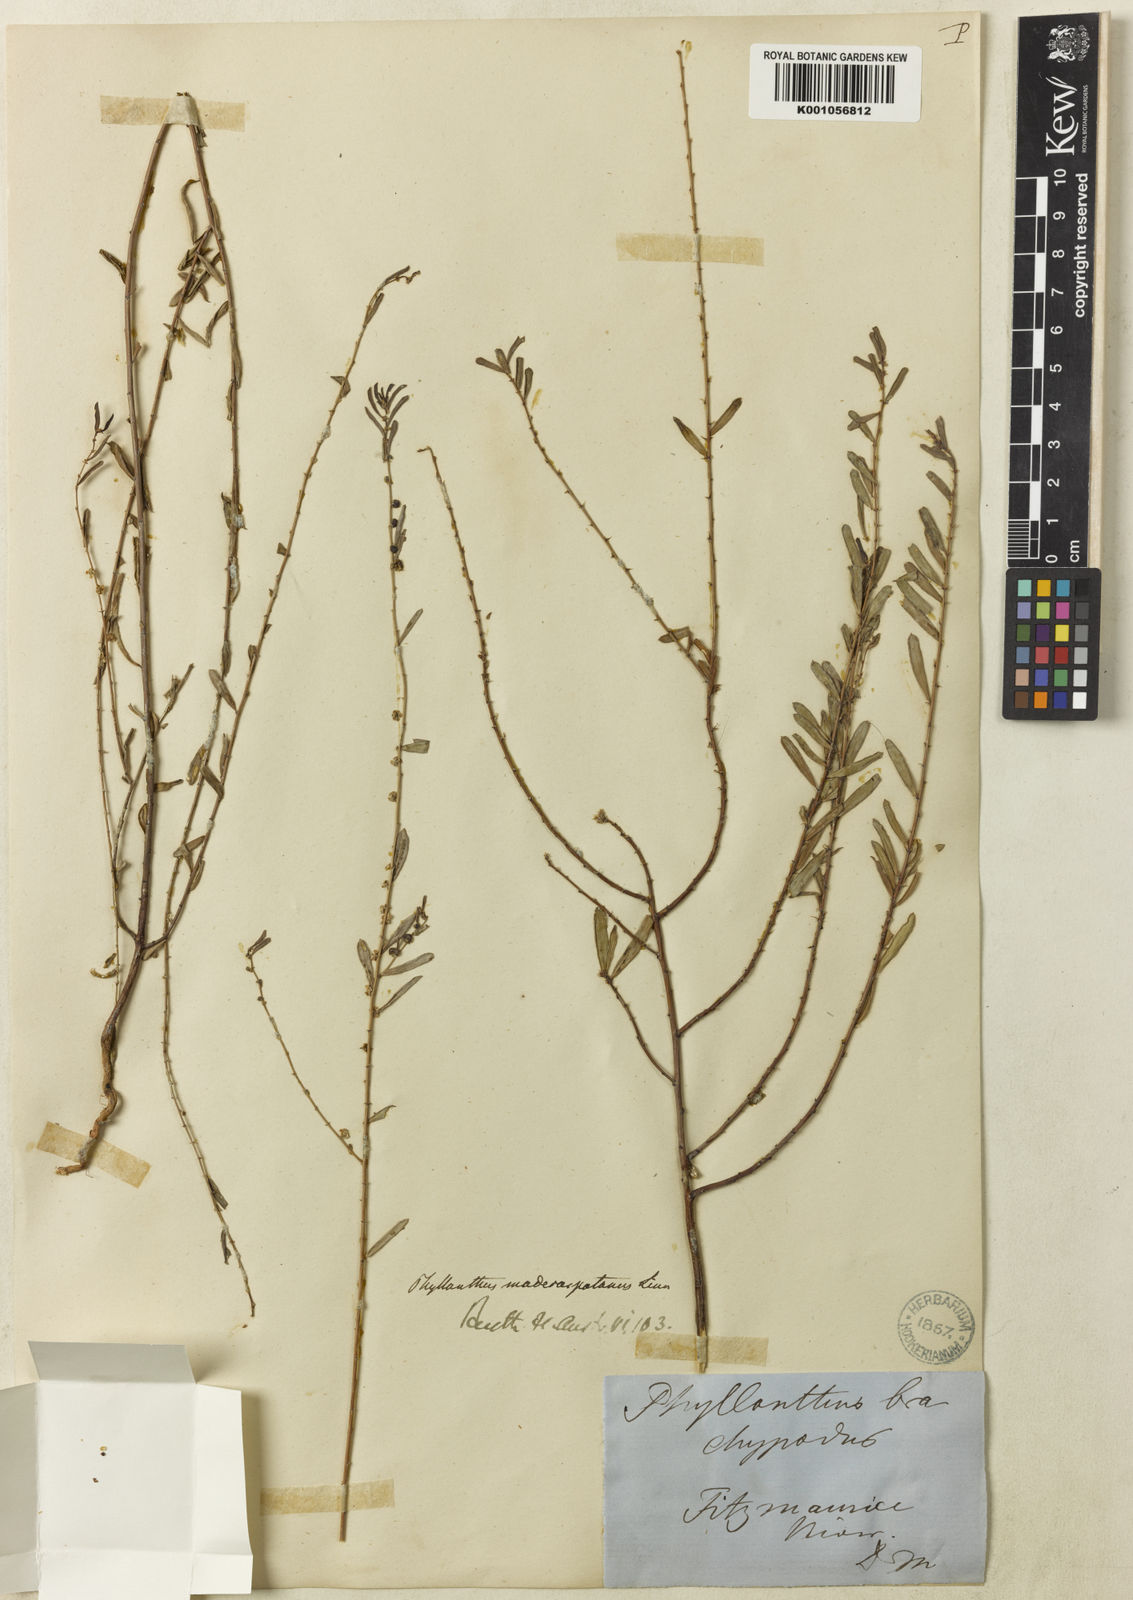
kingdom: Plantae
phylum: Tracheophyta
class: Magnoliopsida
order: Malpighiales
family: Phyllanthaceae
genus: Phyllanthus
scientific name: Phyllanthus maderaspatensis
